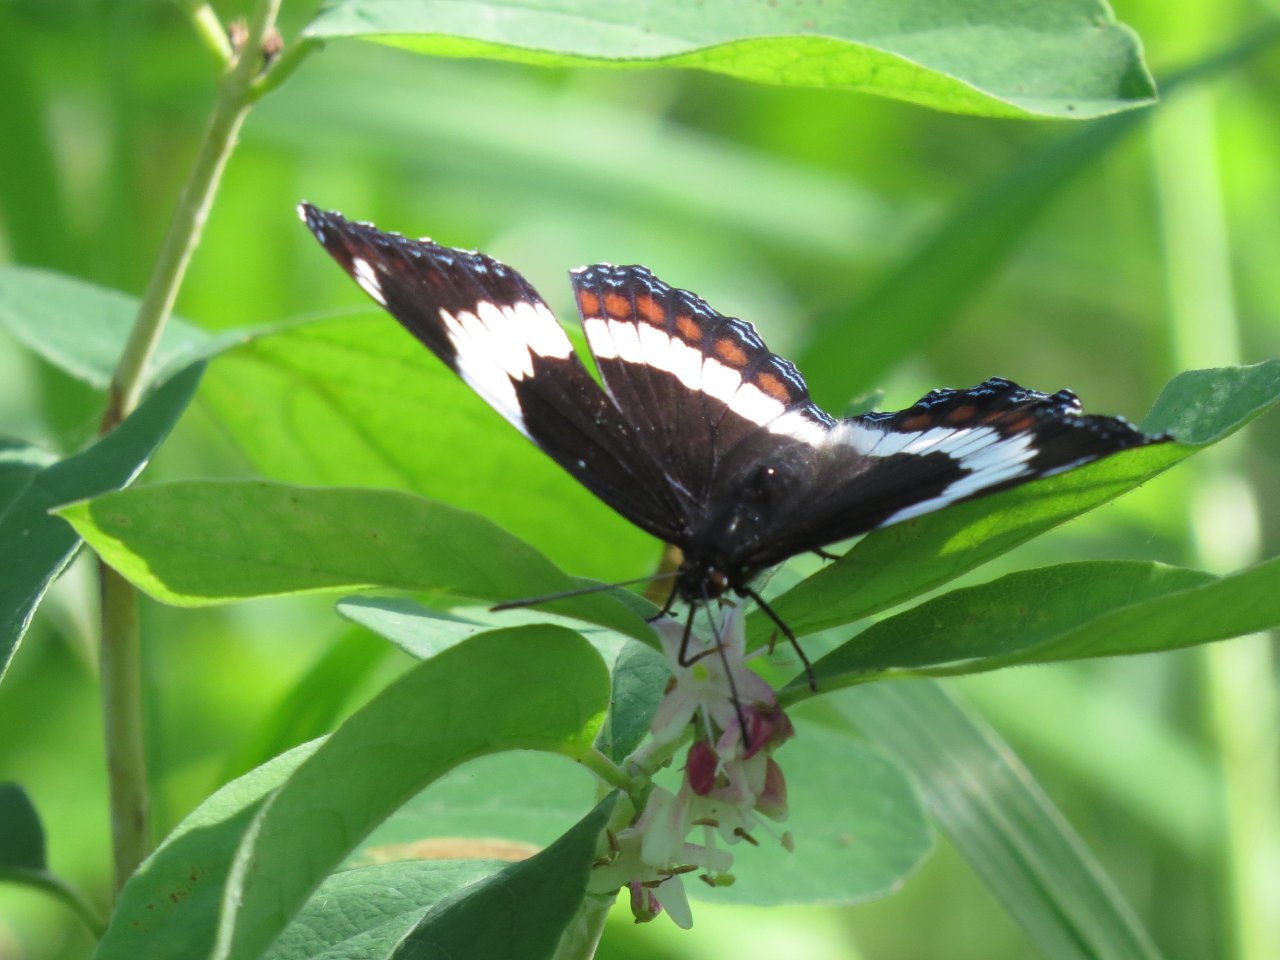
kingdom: Animalia
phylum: Arthropoda
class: Insecta
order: Lepidoptera
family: Nymphalidae
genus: Limenitis
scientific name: Limenitis arthemis
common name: Red-spotted Admiral
